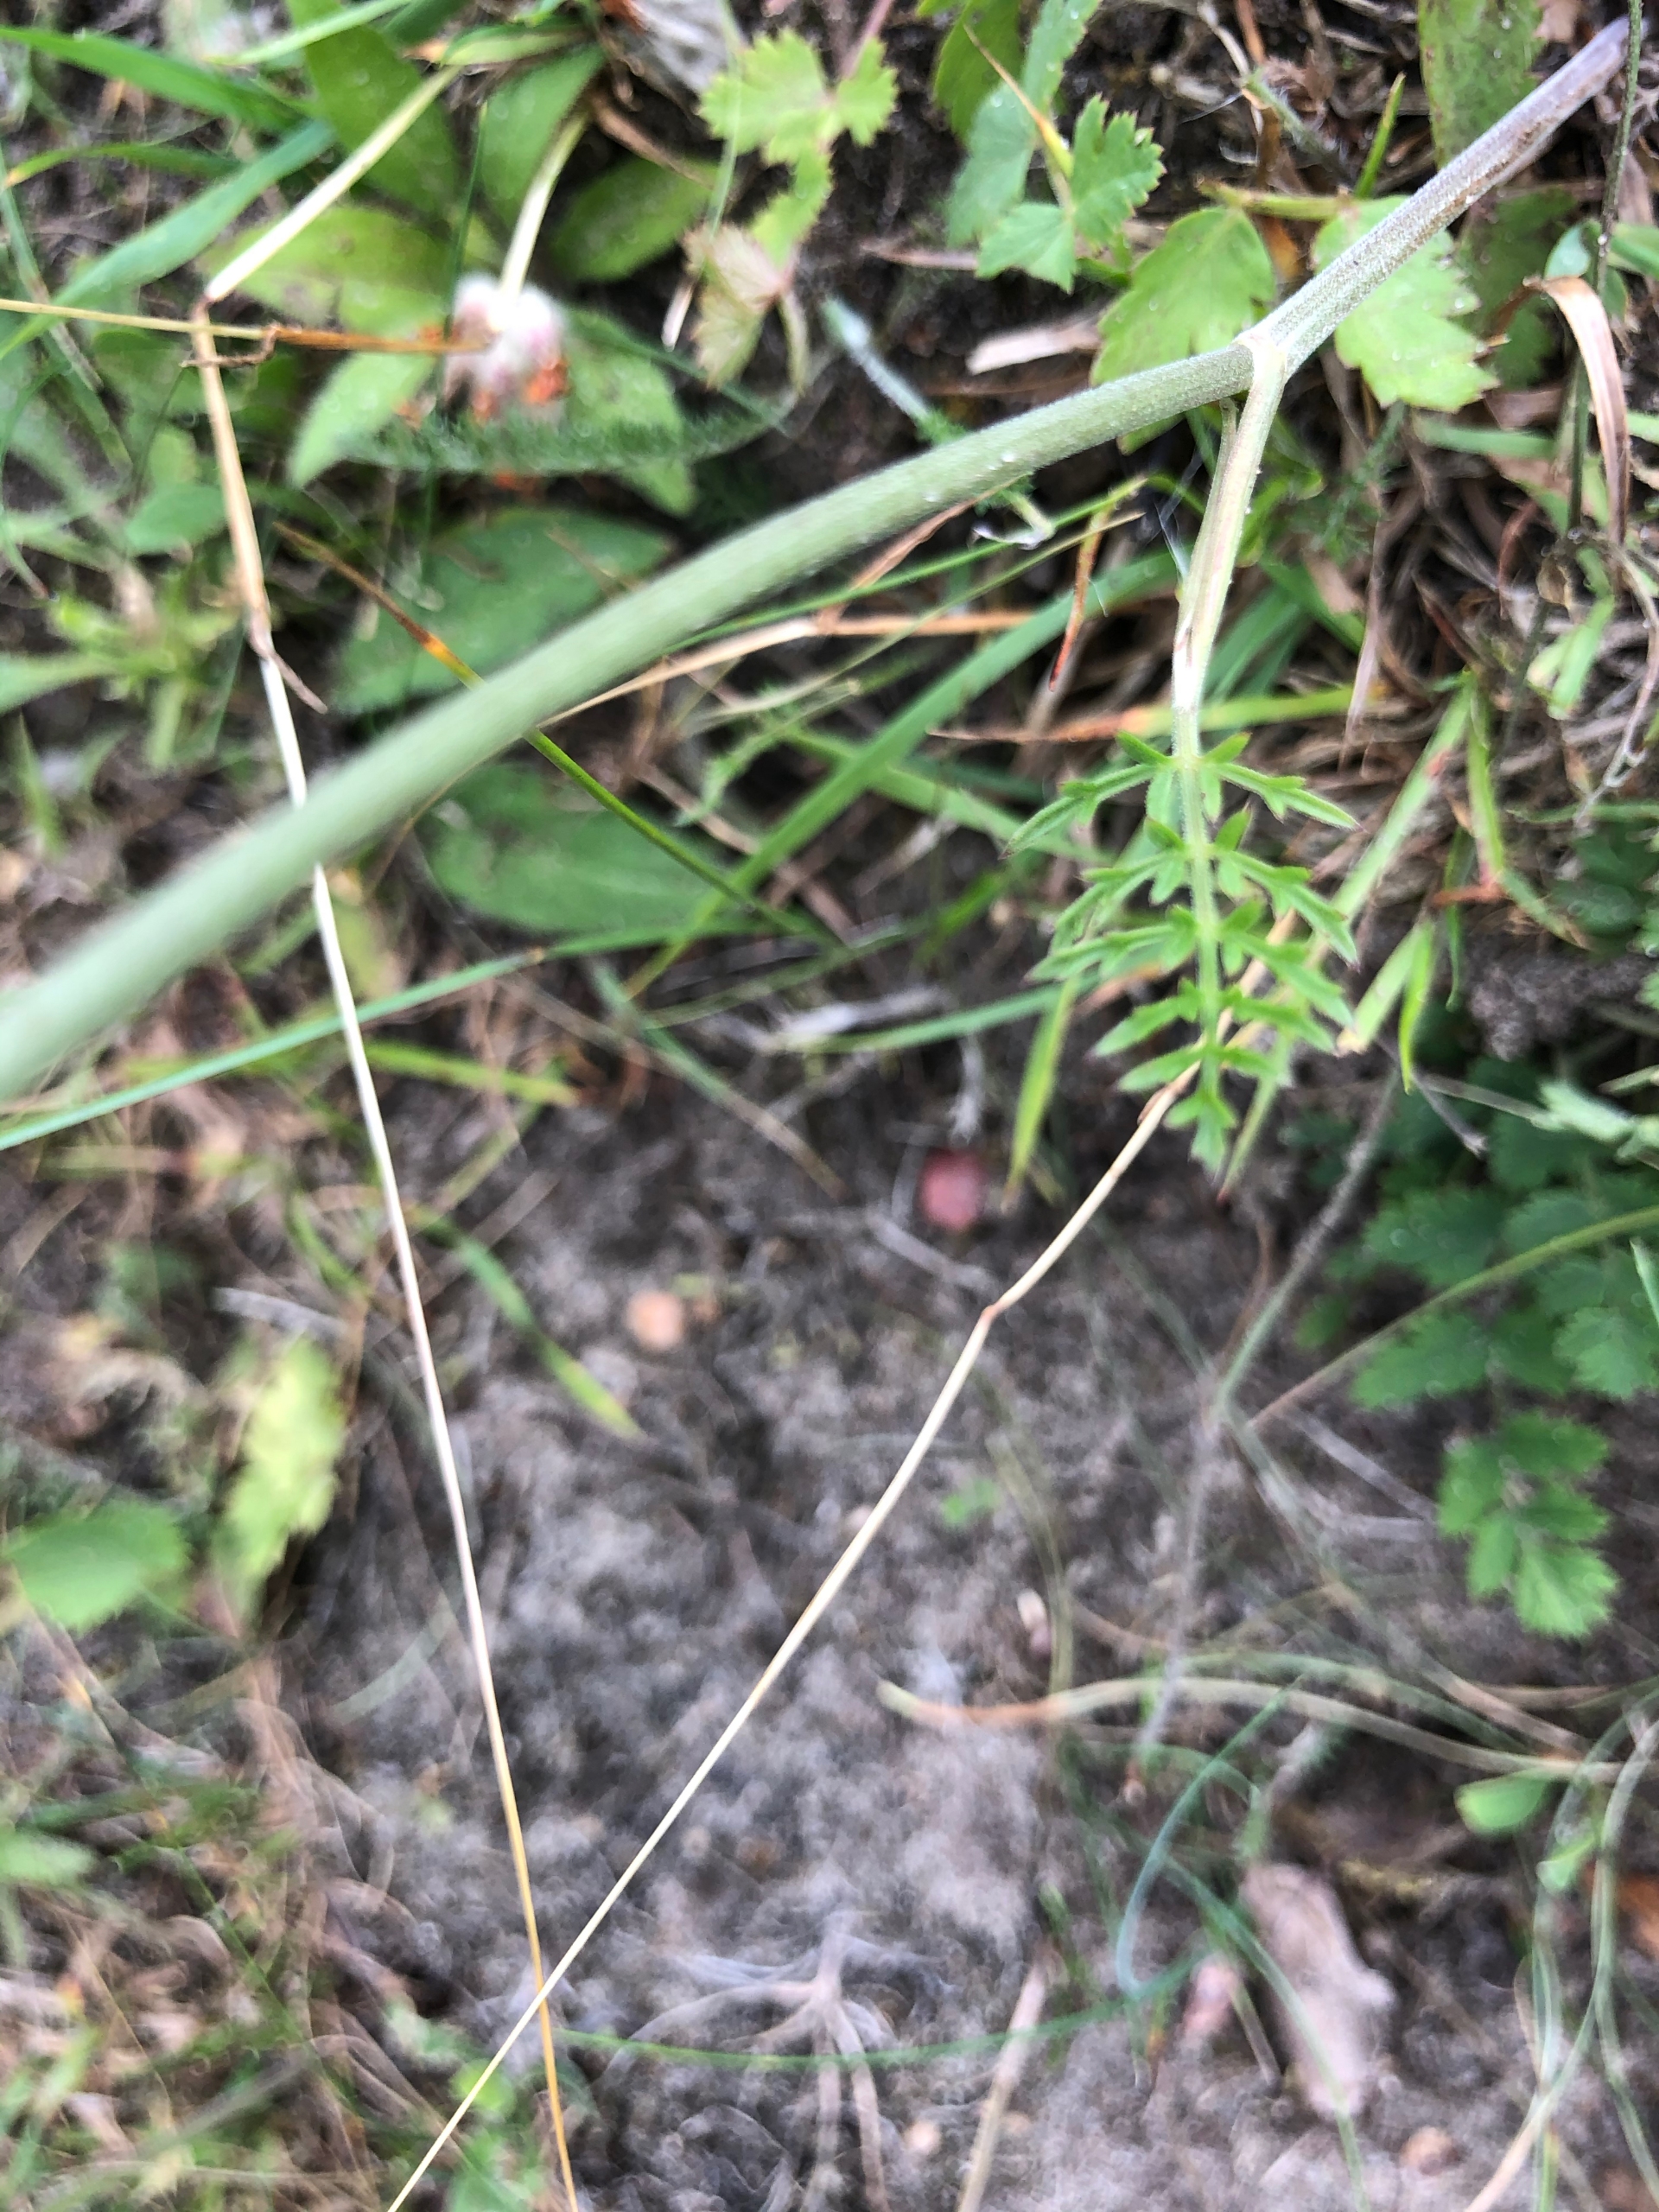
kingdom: Plantae
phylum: Tracheophyta
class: Magnoliopsida
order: Apiales
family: Apiaceae
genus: Pimpinella
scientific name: Pimpinella saxifraga
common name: Almindelig pimpinelle
